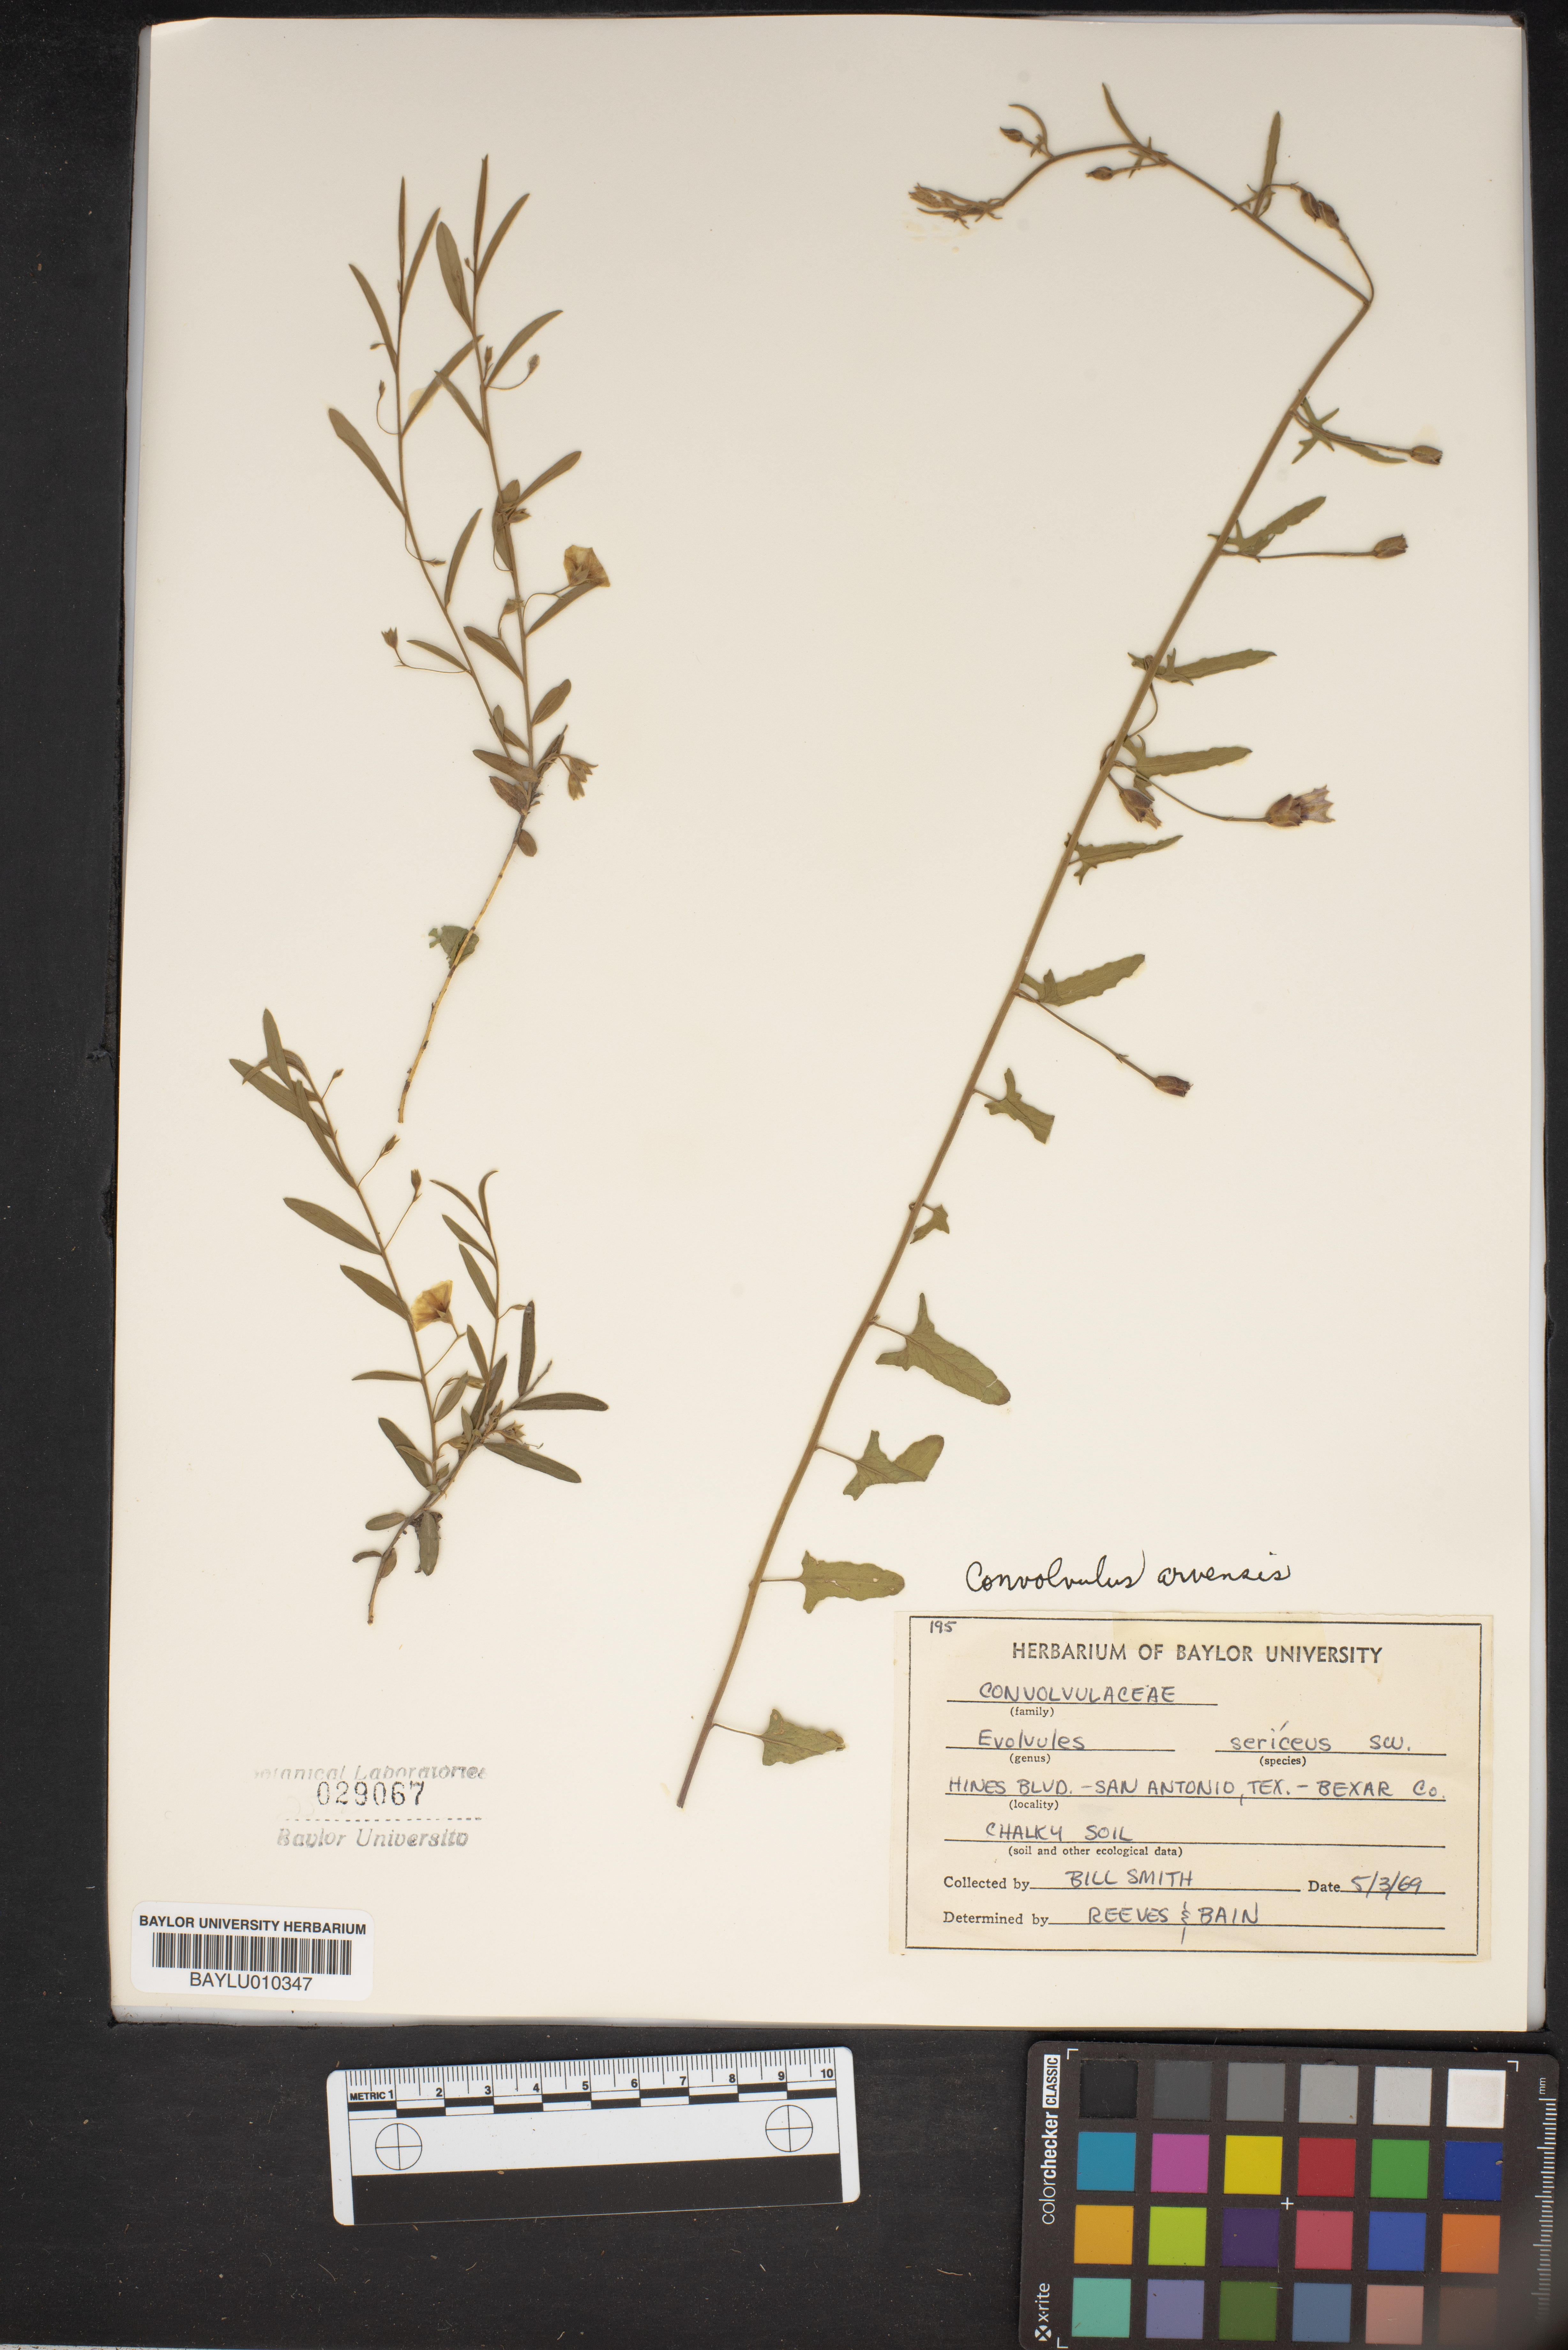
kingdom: Plantae
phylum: Tracheophyta
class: Magnoliopsida
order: Solanales
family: Convolvulaceae
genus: Evolvulus
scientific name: Evolvulus sericeus
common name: Blue dots
